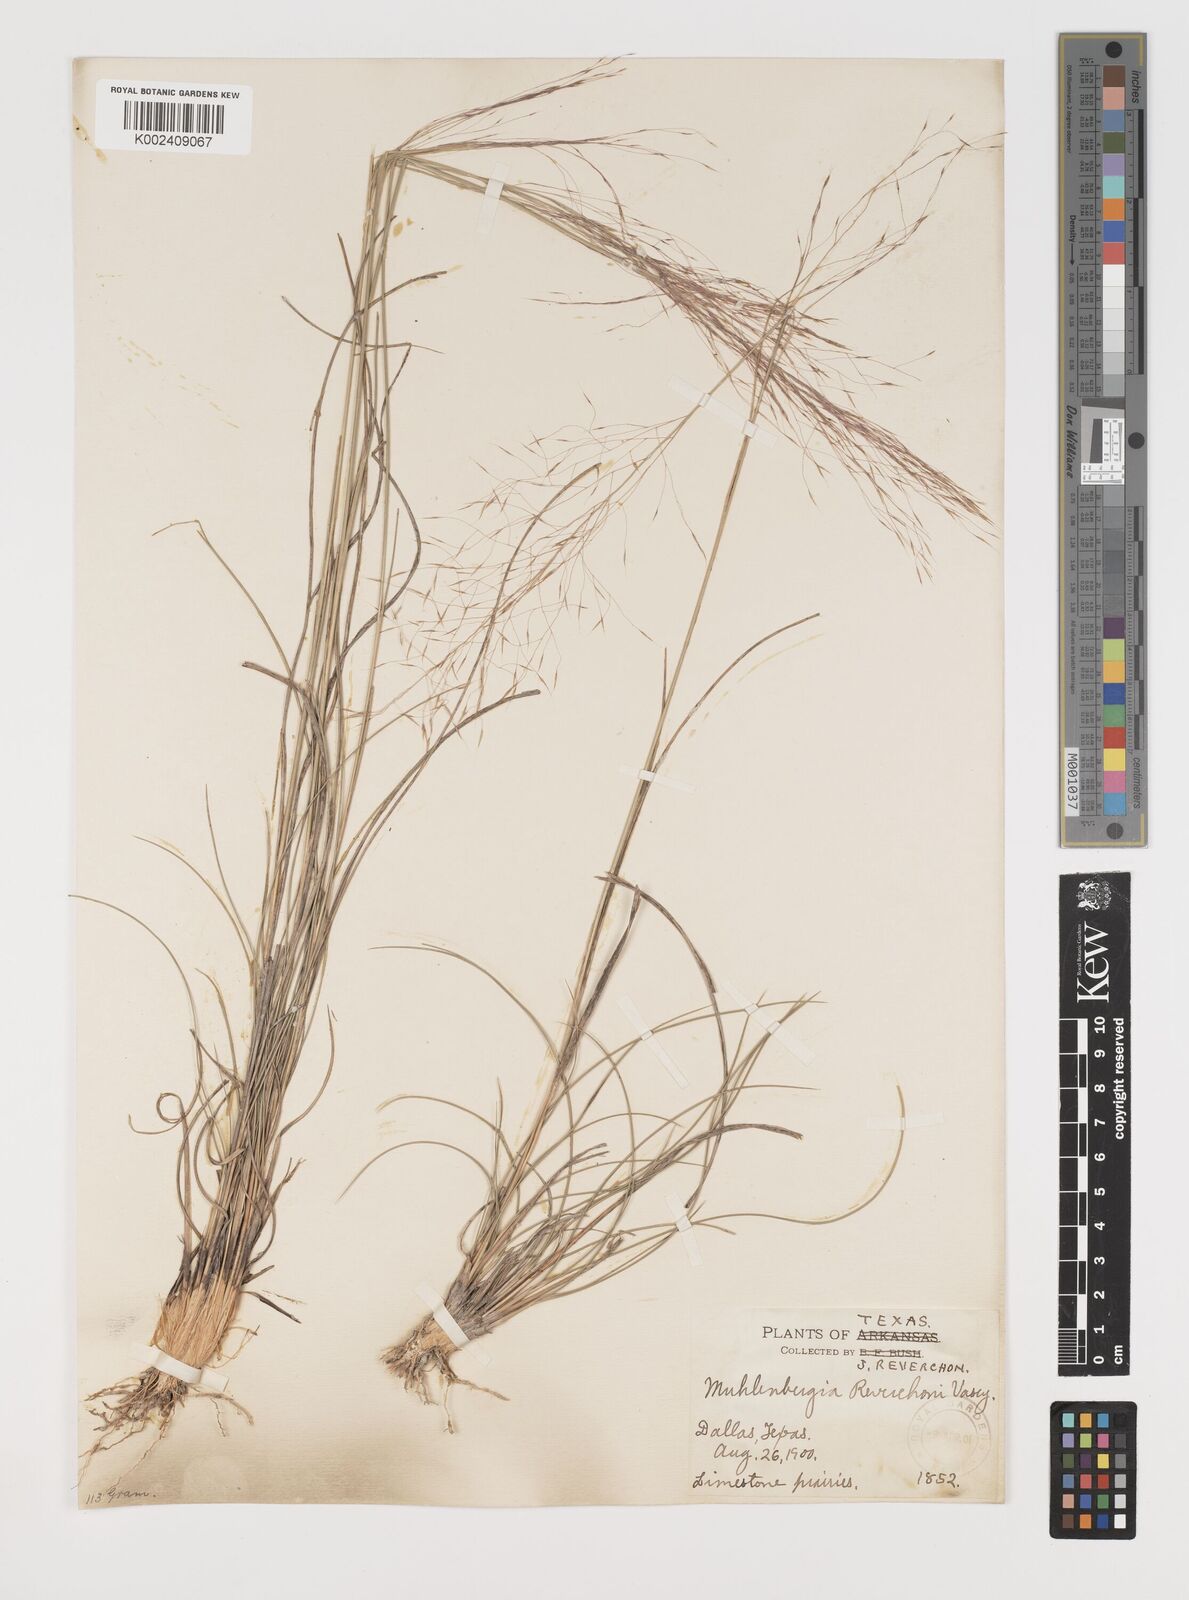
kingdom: Plantae
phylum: Tracheophyta
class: Liliopsida
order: Poales
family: Poaceae
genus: Muhlenbergia
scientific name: Muhlenbergia reverchonii
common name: Seep muhly
